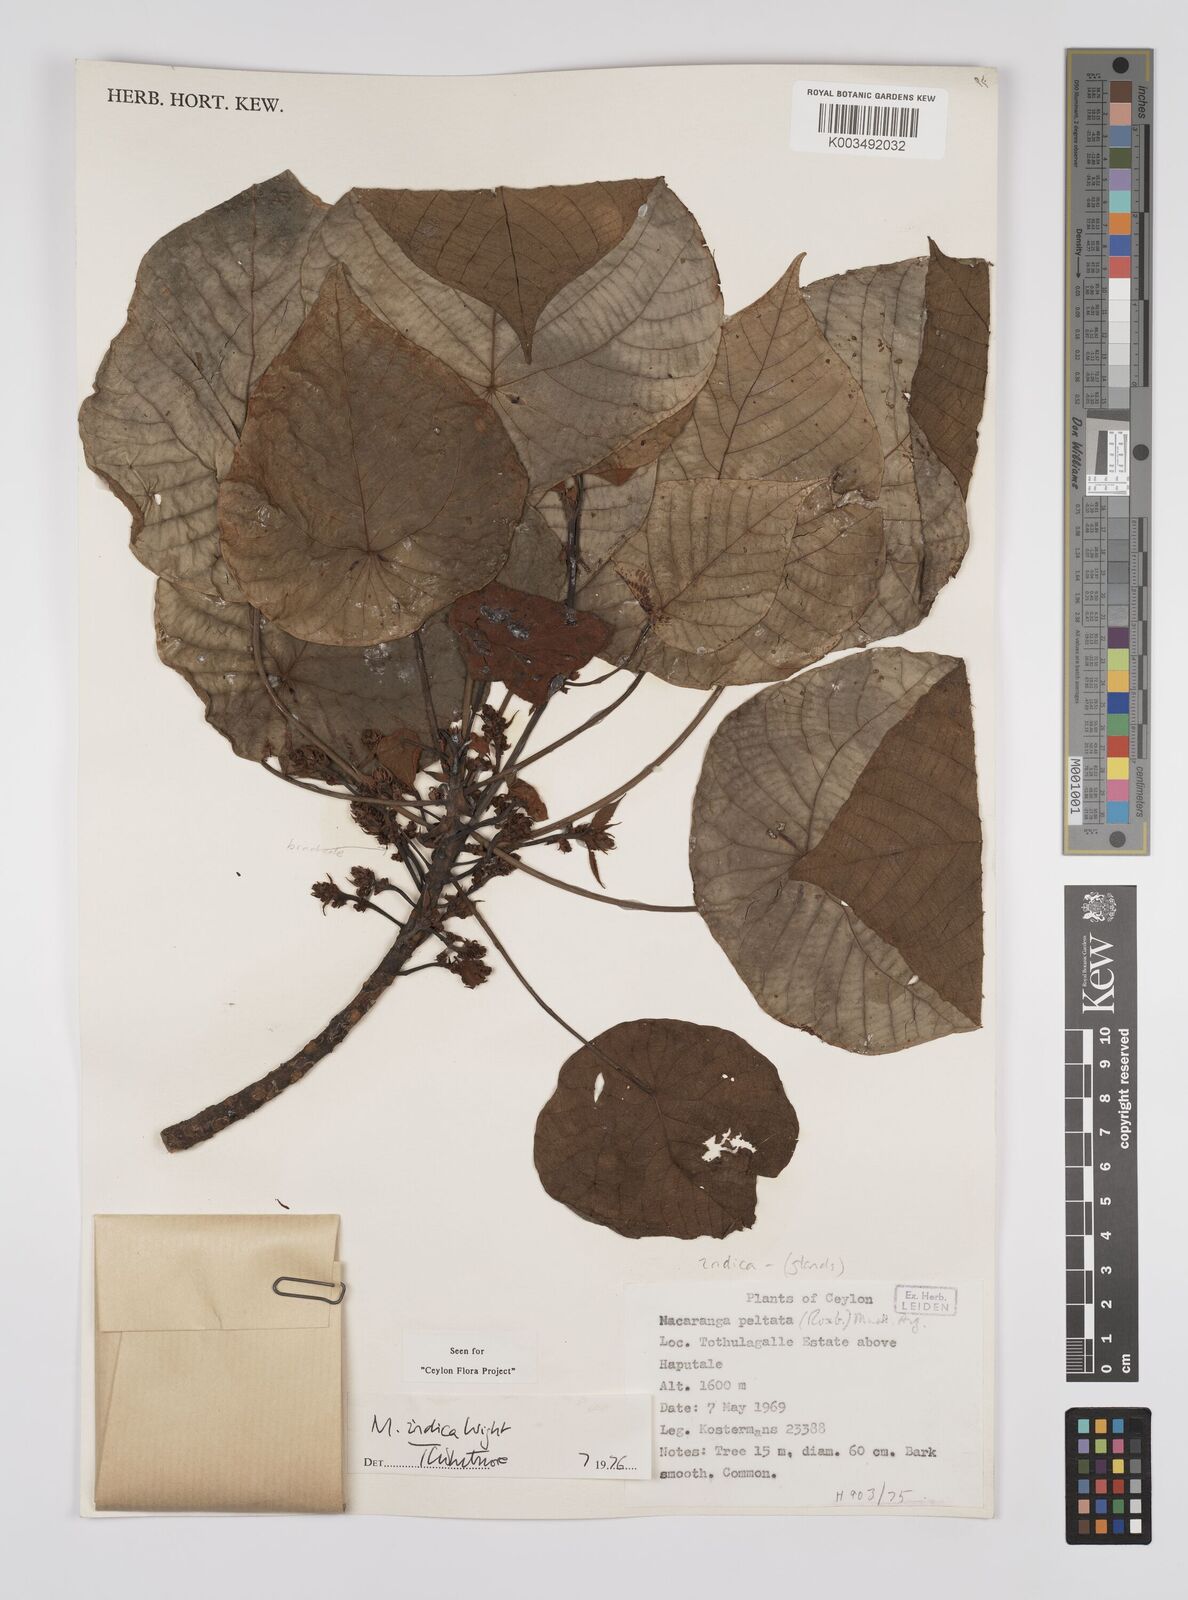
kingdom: Plantae
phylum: Tracheophyta
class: Magnoliopsida
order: Malpighiales
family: Euphorbiaceae
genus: Macaranga
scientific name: Macaranga indica
